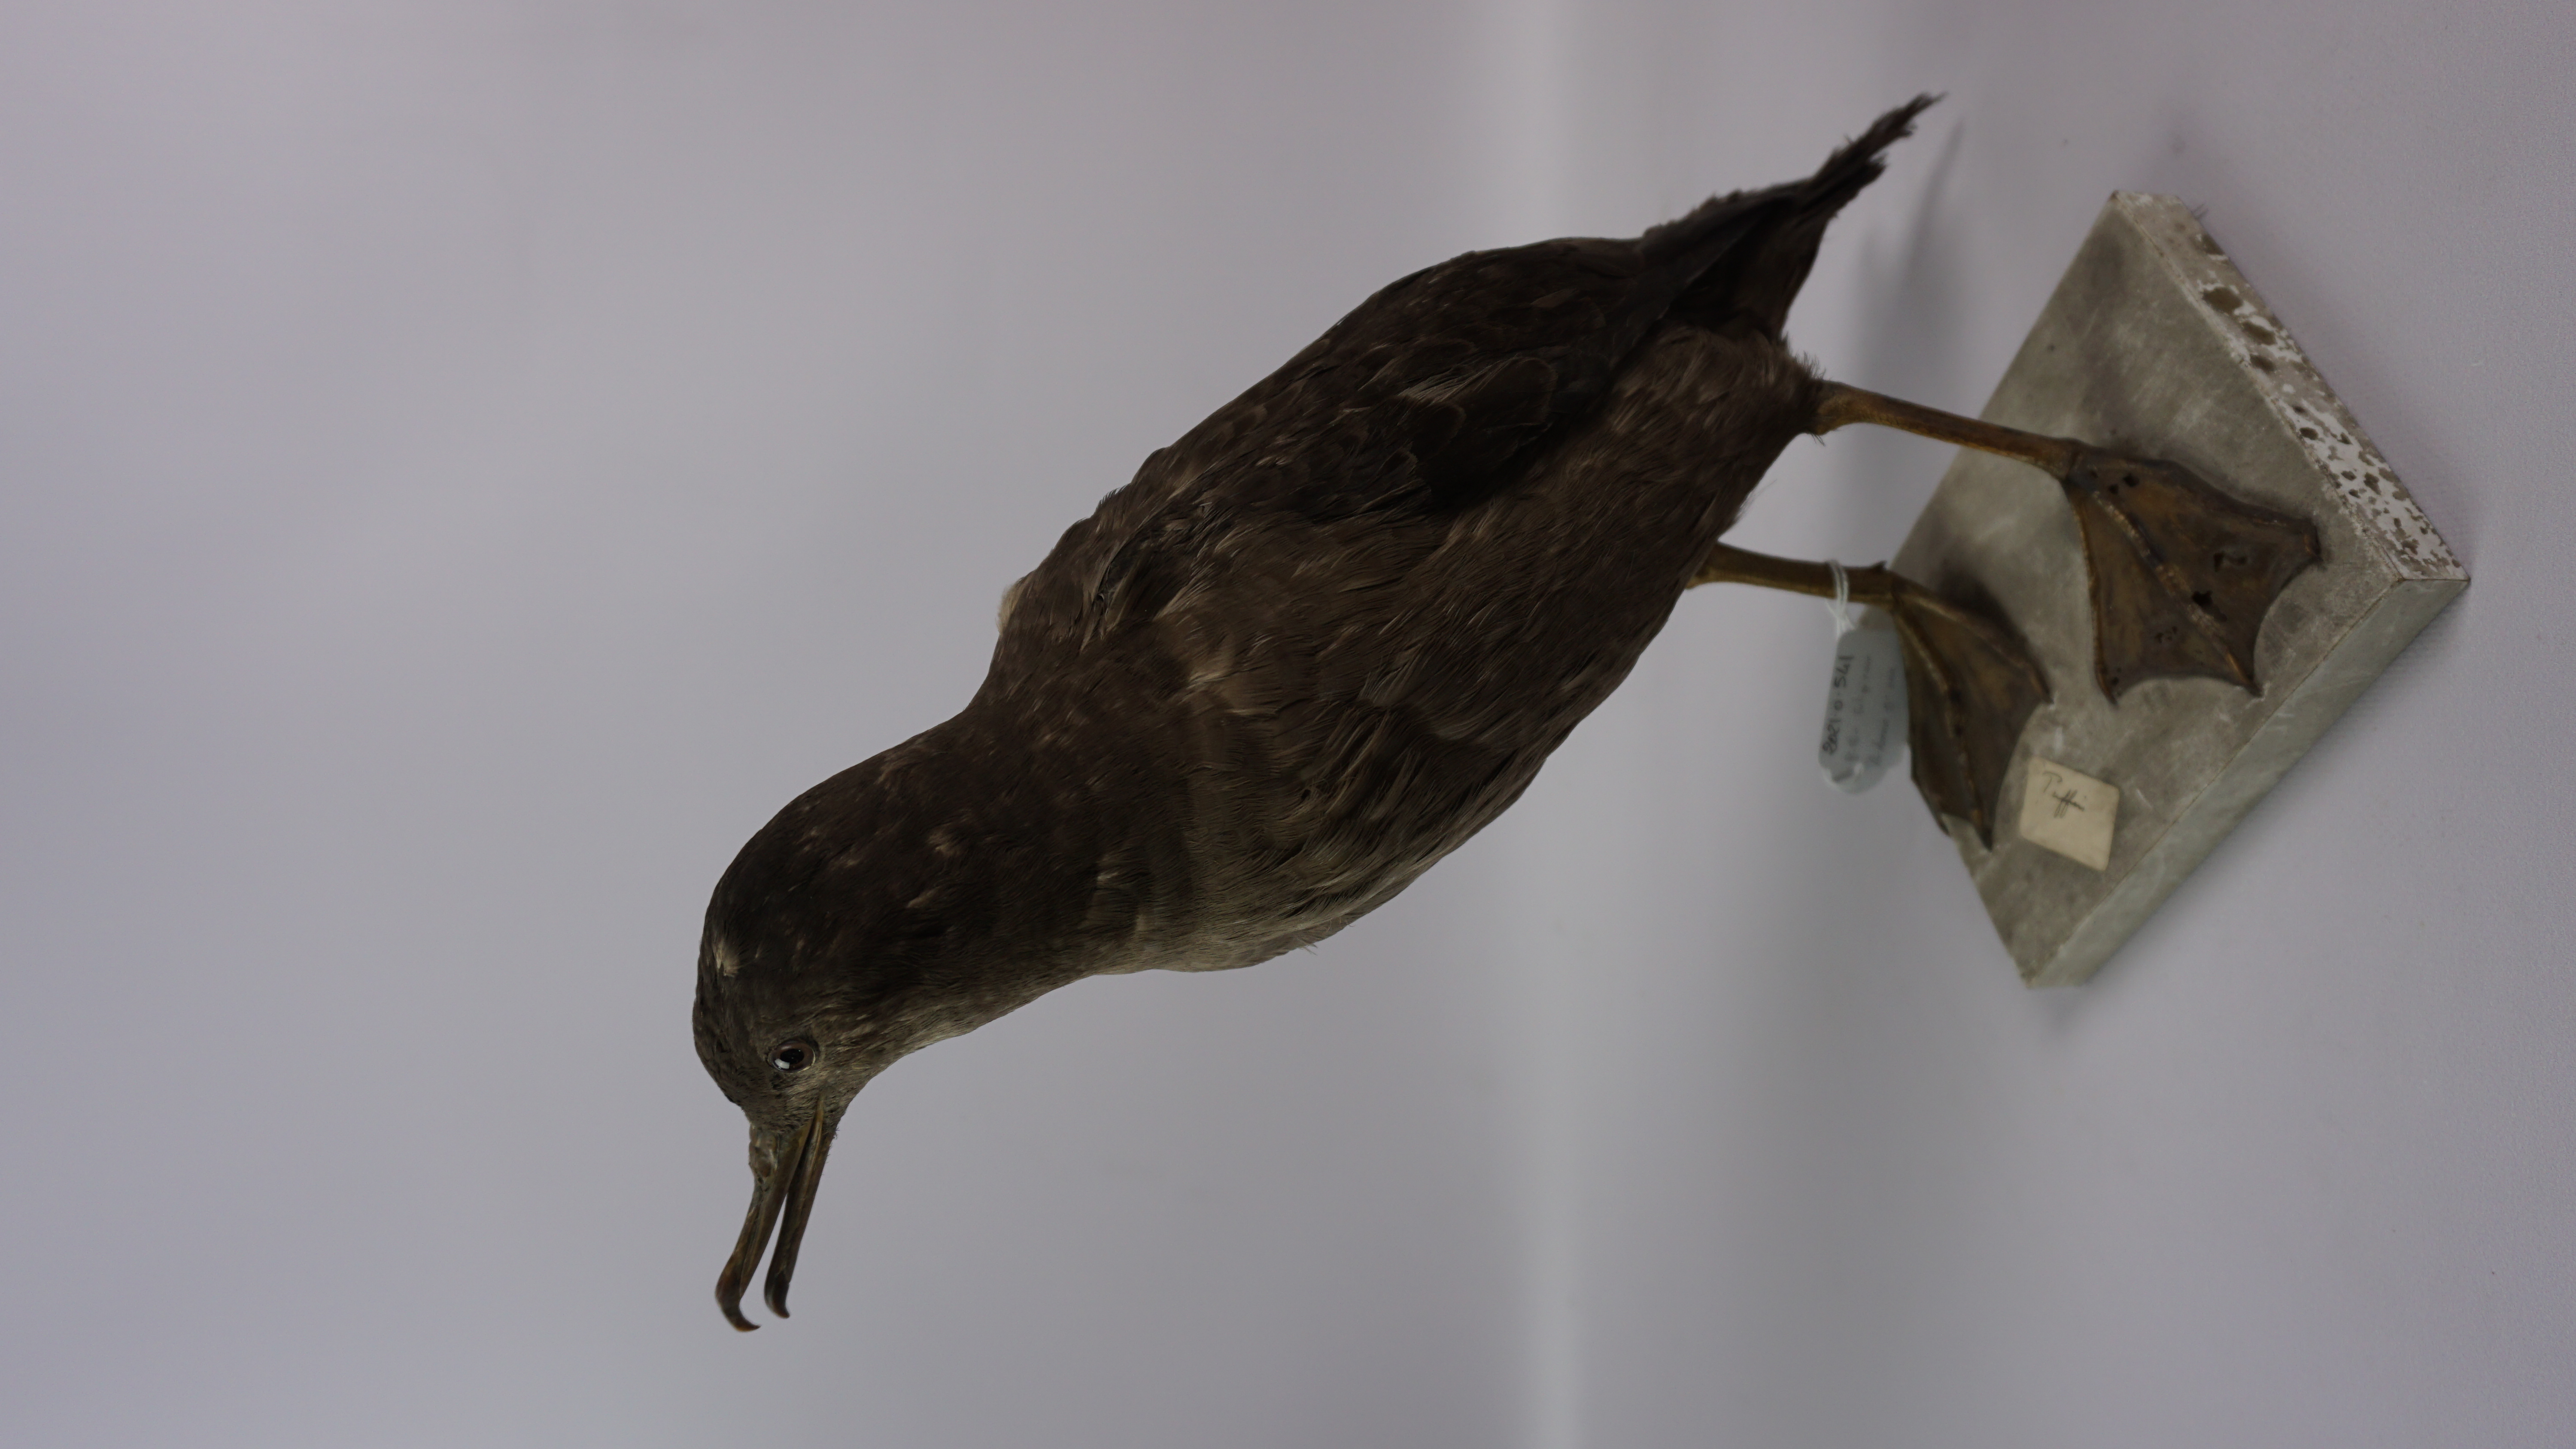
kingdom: Animalia
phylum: Chordata
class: Aves
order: Procellariiformes
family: Procellariidae
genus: Puffinus
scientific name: Puffinus griseus
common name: Sooty shearwater
